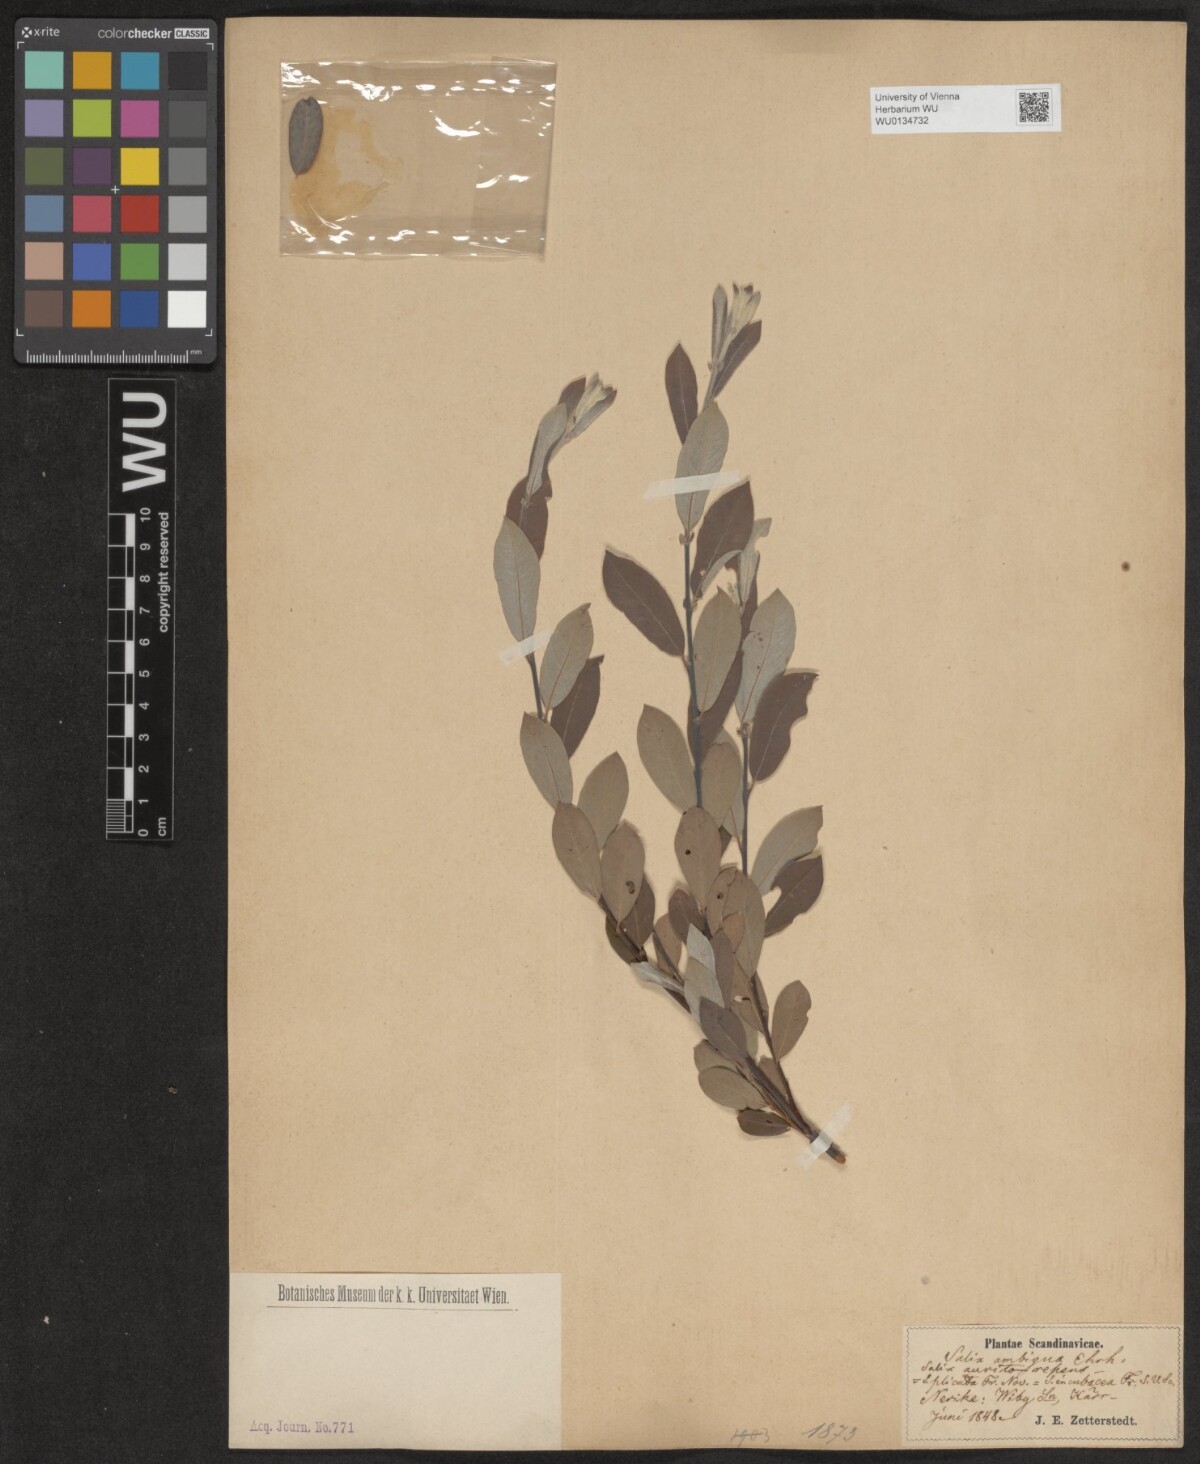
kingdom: Plantae
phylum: Tracheophyta
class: Magnoliopsida
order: Malpighiales
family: Salicaceae
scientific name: Salicaceae
